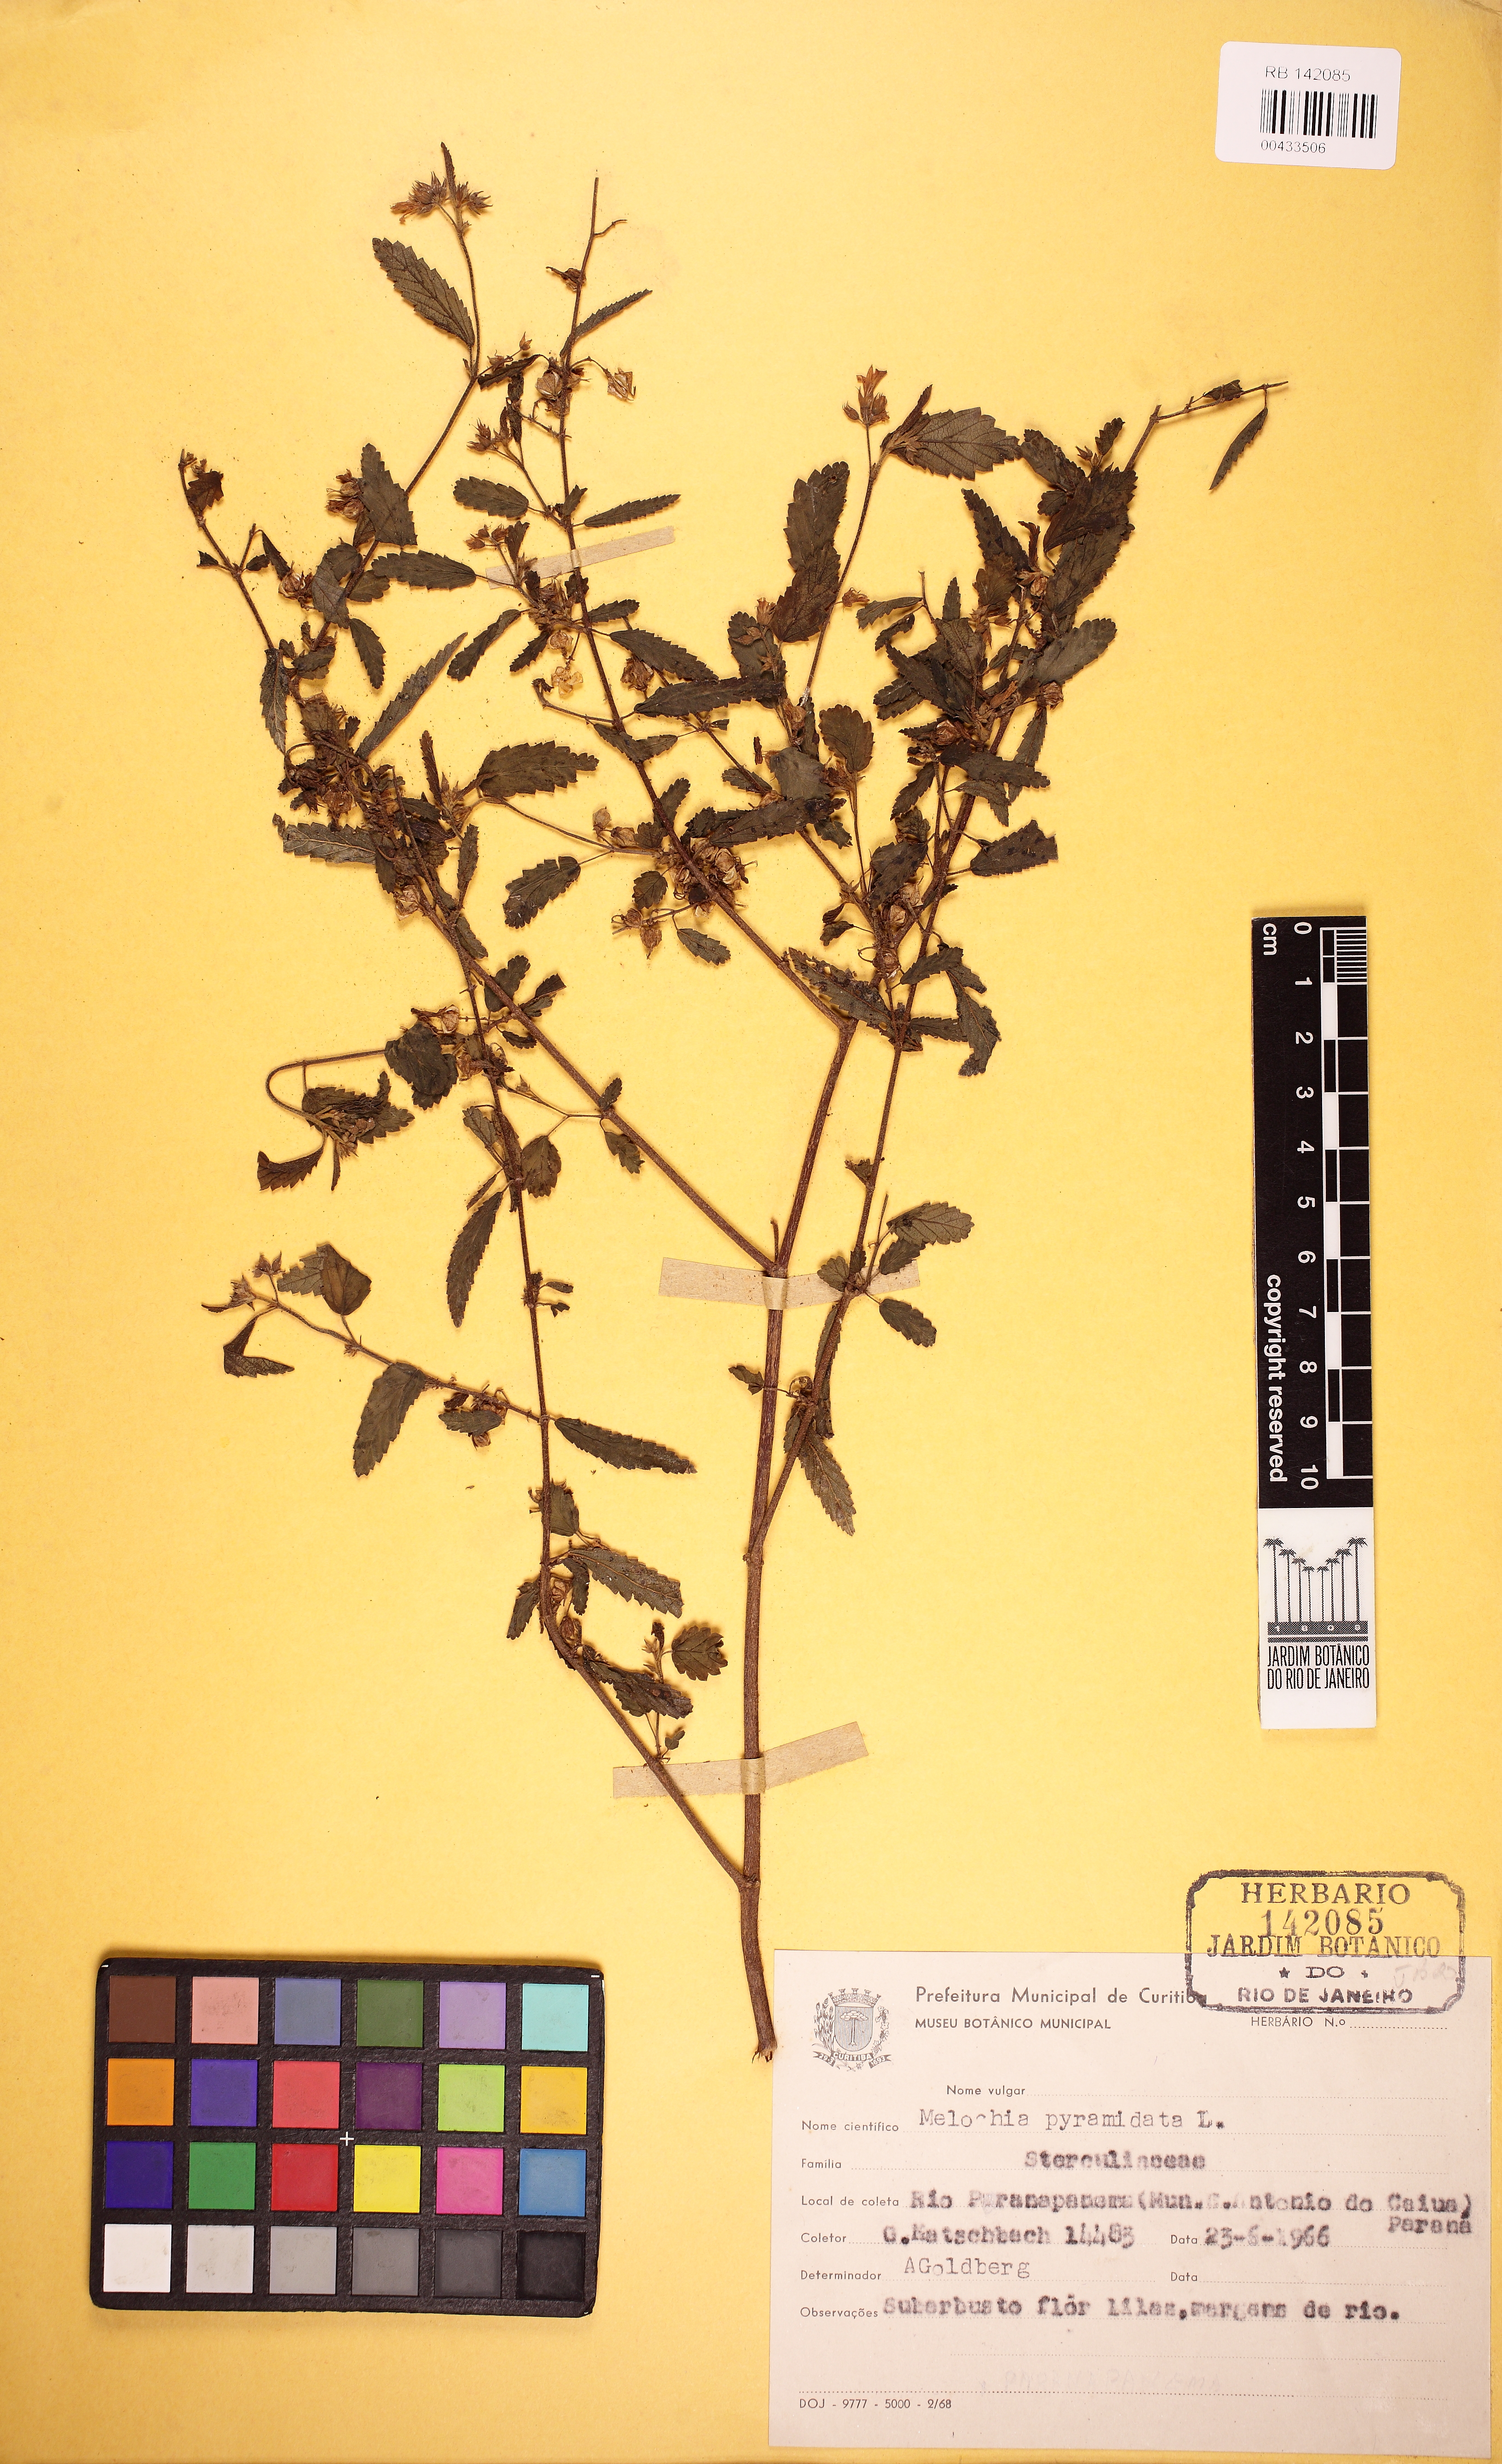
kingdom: Plantae
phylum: Tracheophyta
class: Magnoliopsida
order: Malvales
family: Malvaceae
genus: Melochia
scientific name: Melochia pyramidata
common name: Pyramidflower
